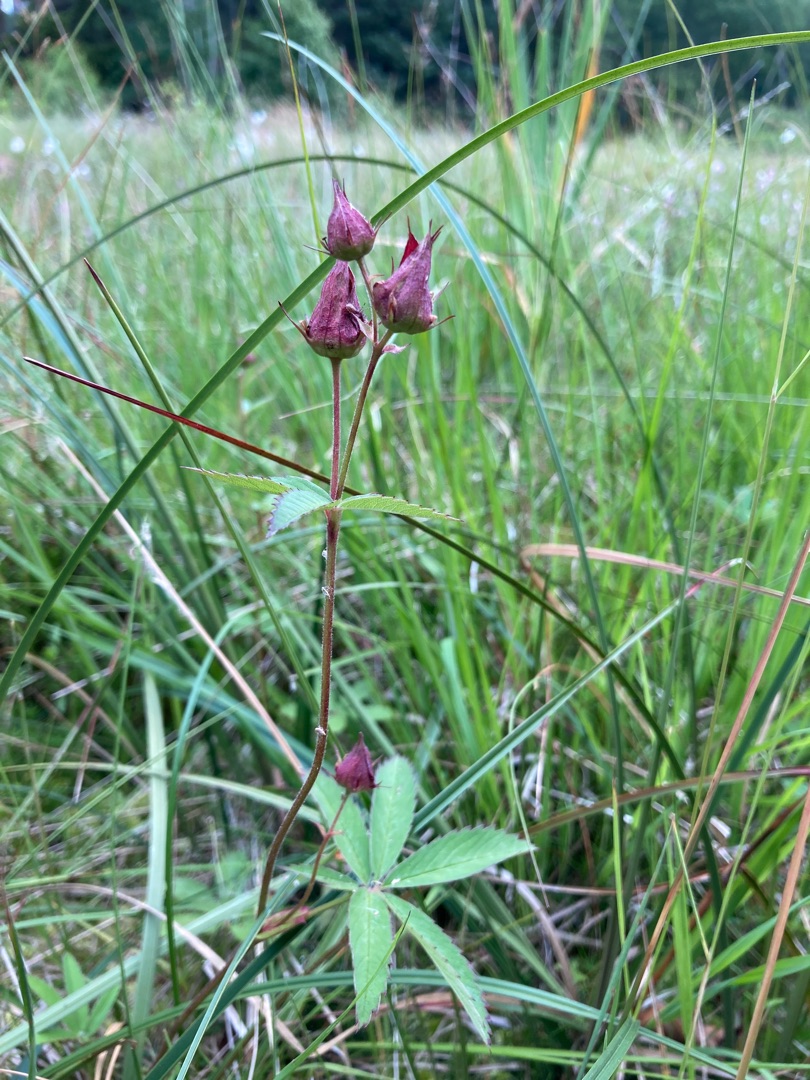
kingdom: Plantae
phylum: Tracheophyta
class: Magnoliopsida
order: Rosales
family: Rosaceae
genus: Comarum
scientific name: Comarum palustre
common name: Kragefod
